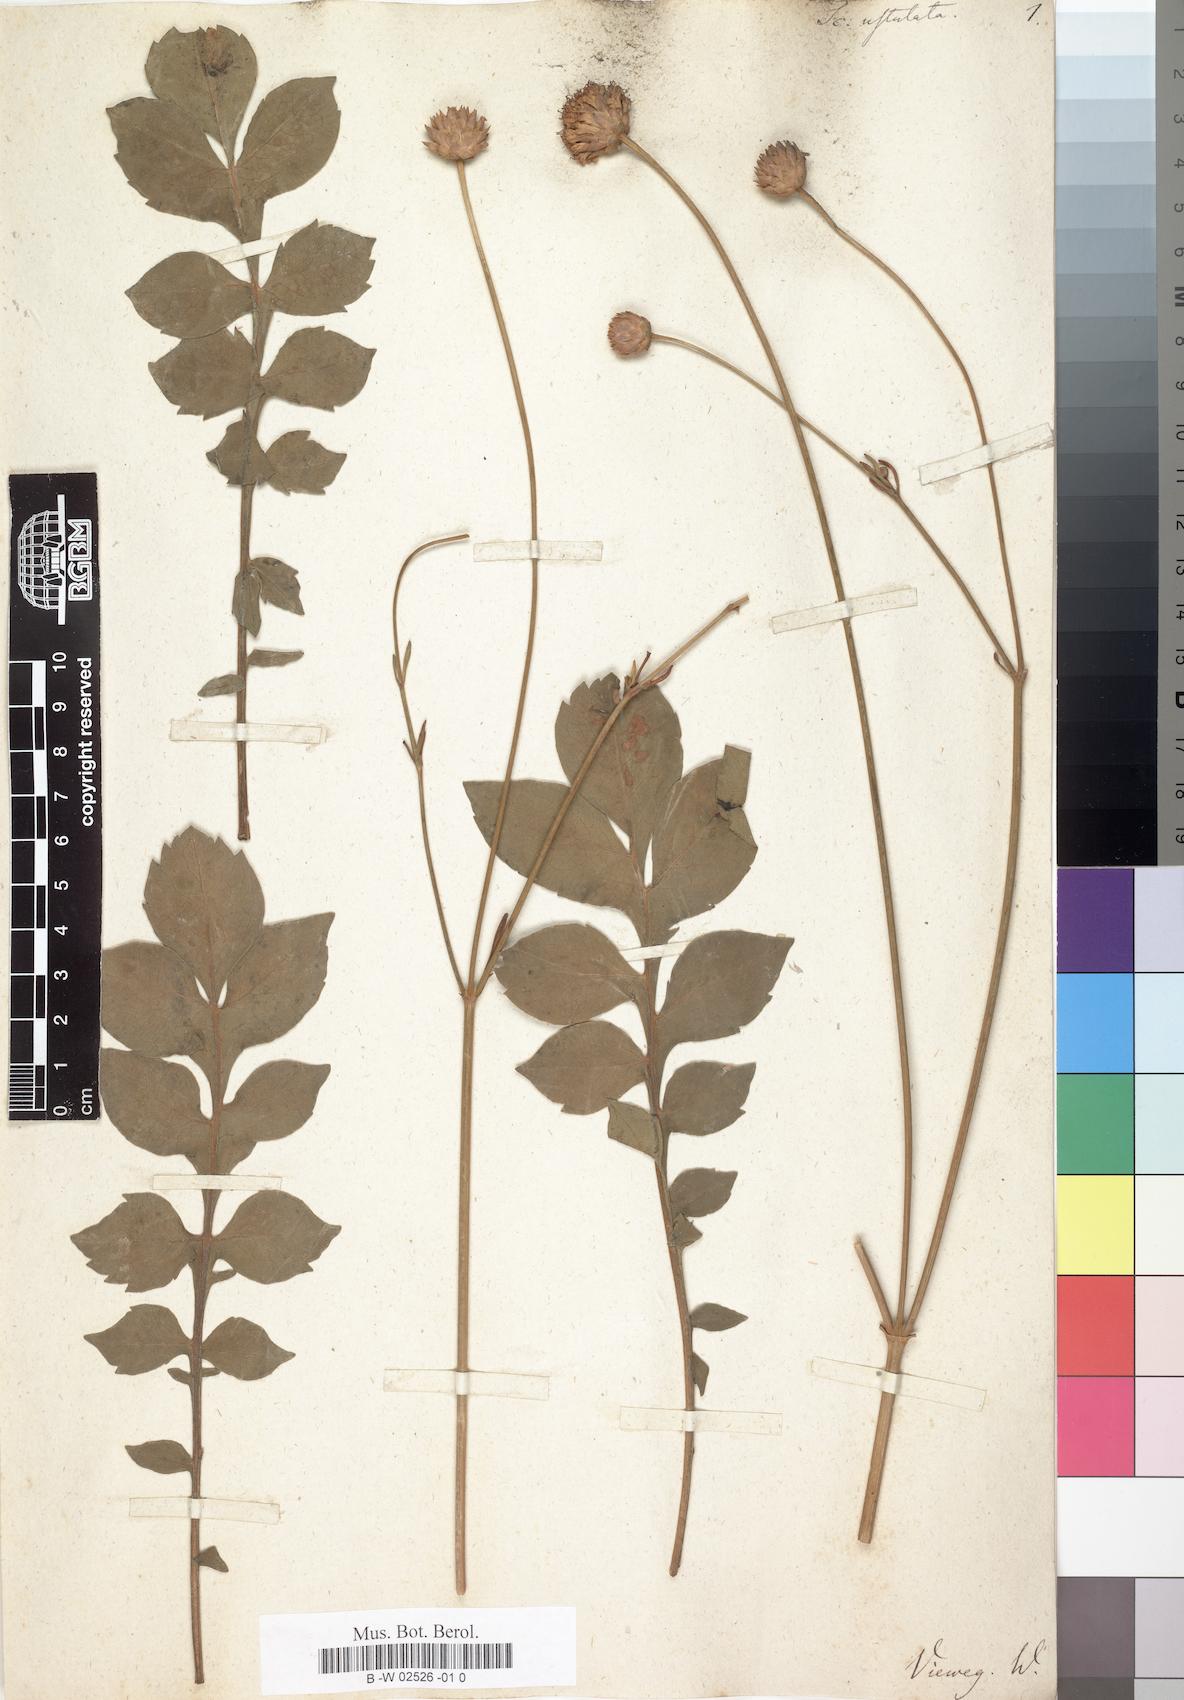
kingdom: Plantae
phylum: Tracheophyta
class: Magnoliopsida
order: Dipsacales
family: Caprifoliaceae
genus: Cephalaria
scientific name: Cephalaria decurrens
